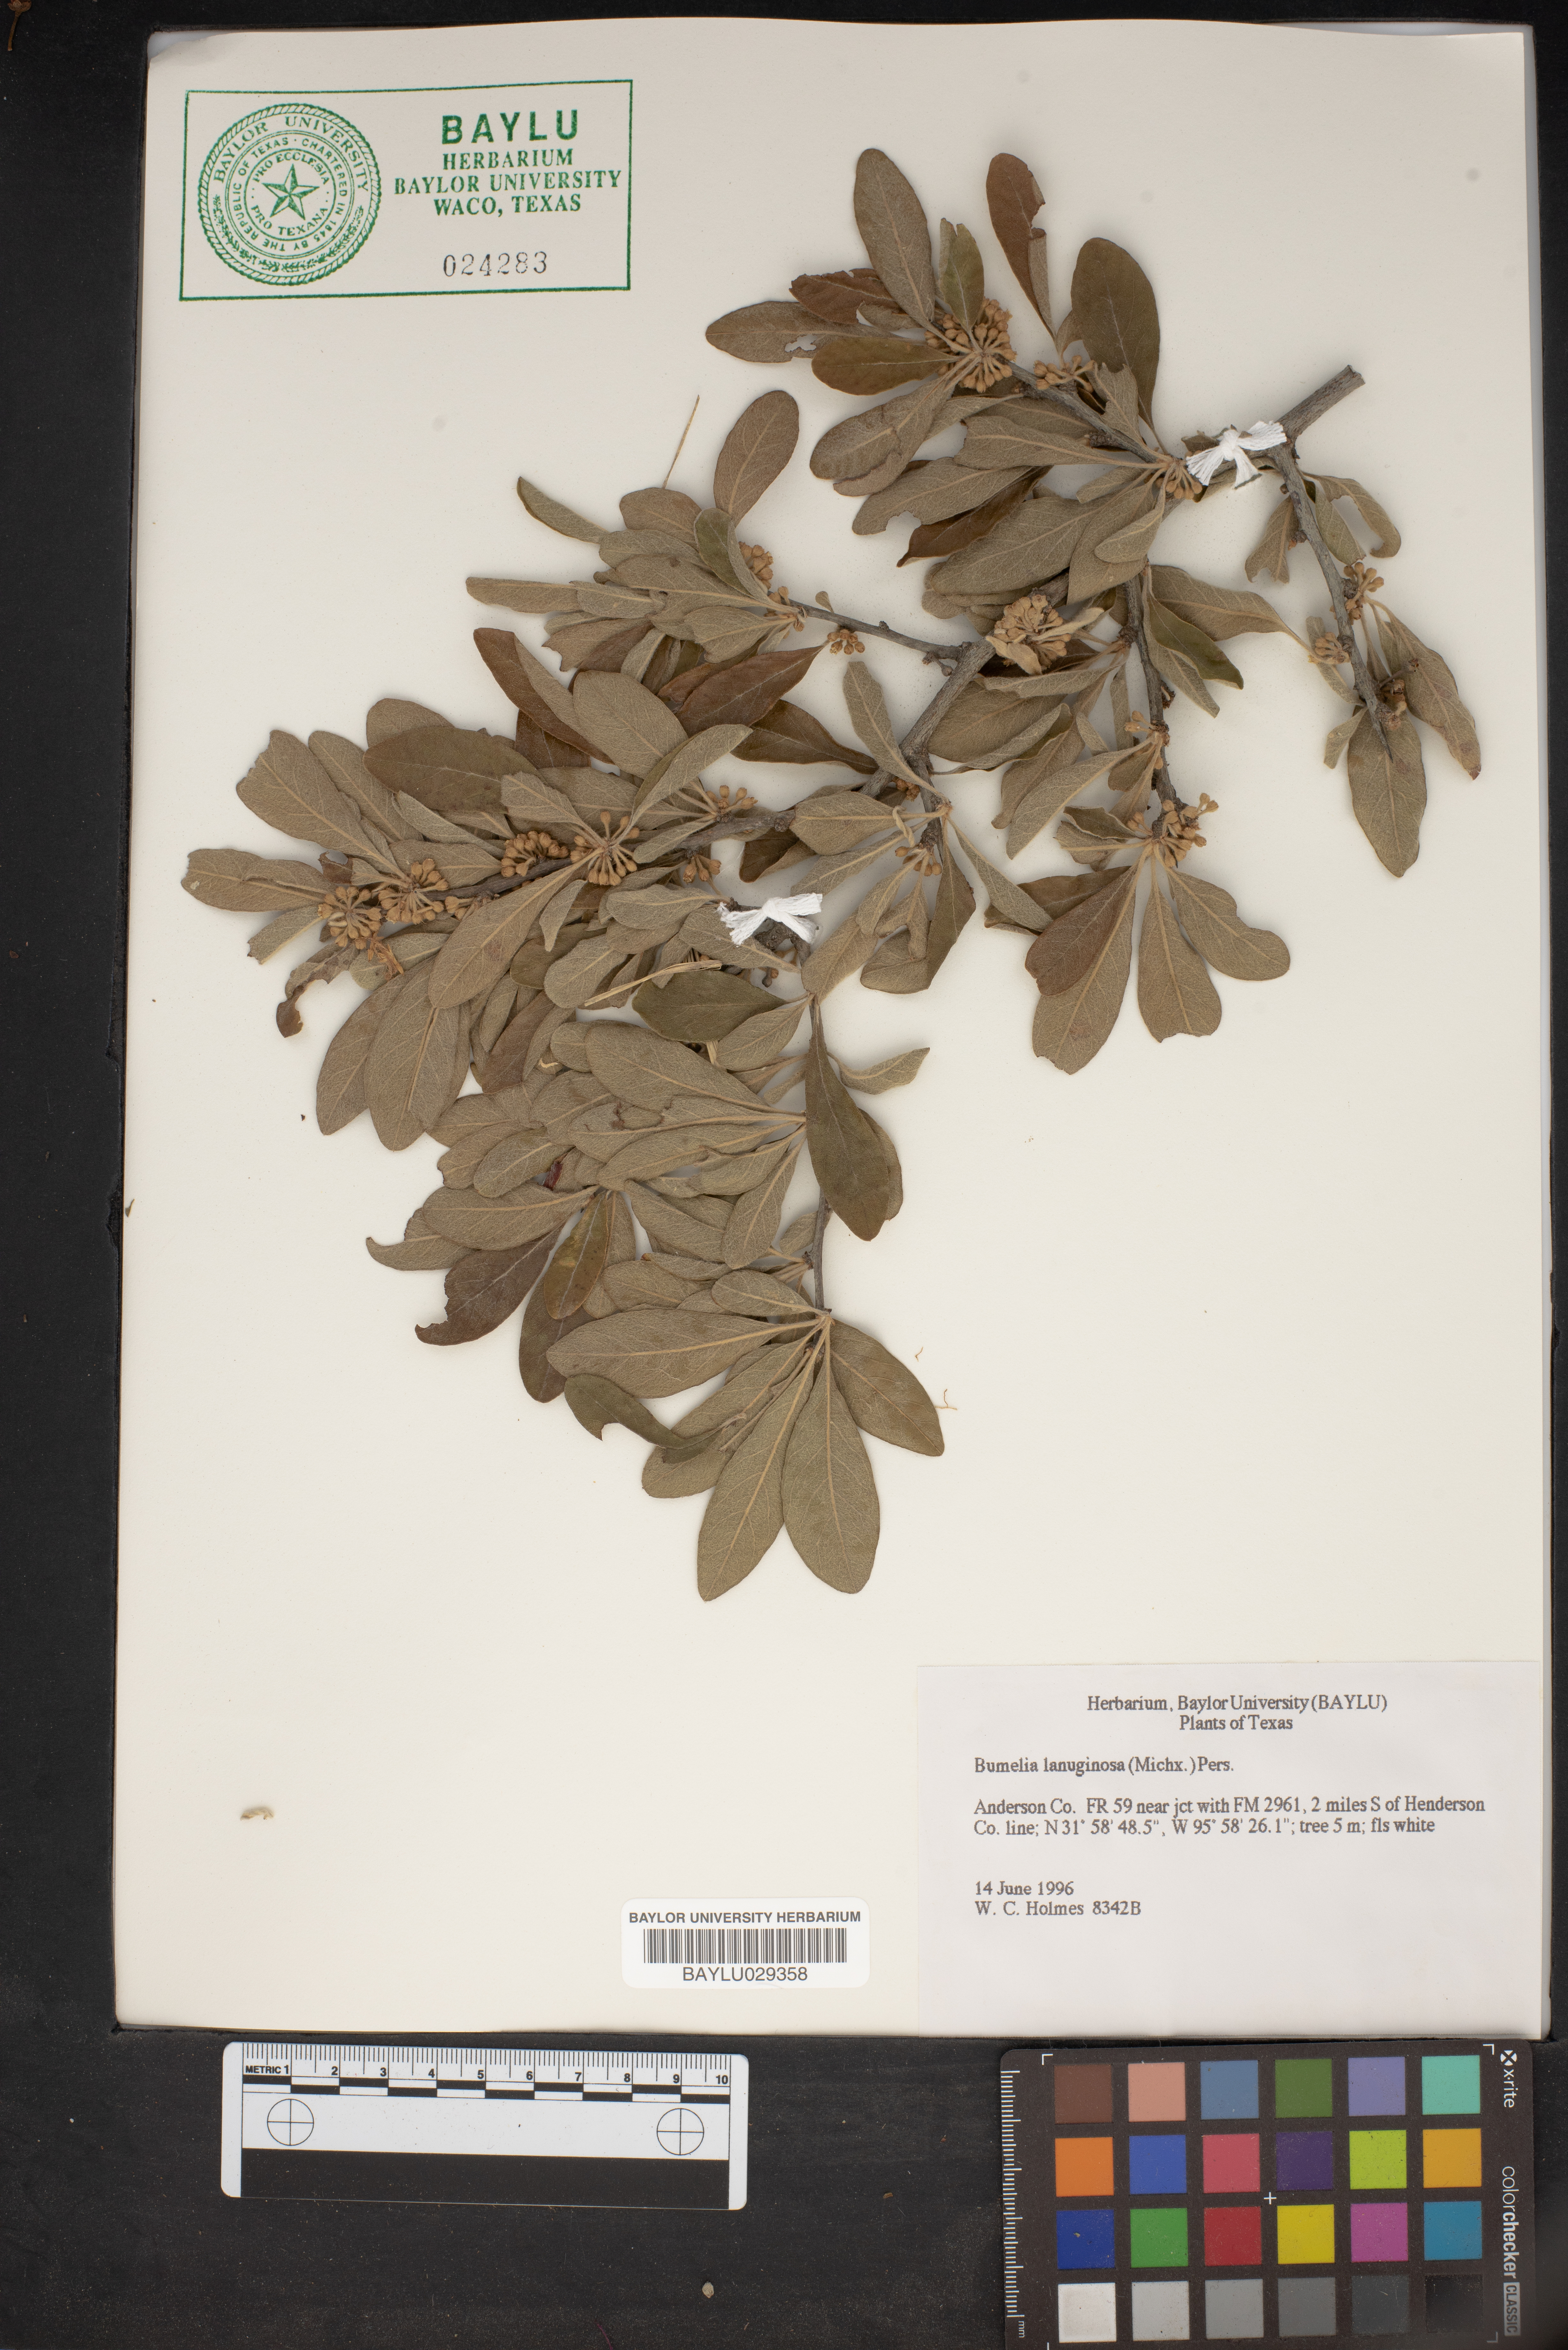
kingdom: Plantae
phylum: Tracheophyta
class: Magnoliopsida
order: Ericales
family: Sapotaceae
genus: Sideroxylon
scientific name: Sideroxylon lanuginosum
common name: Chittamwood
